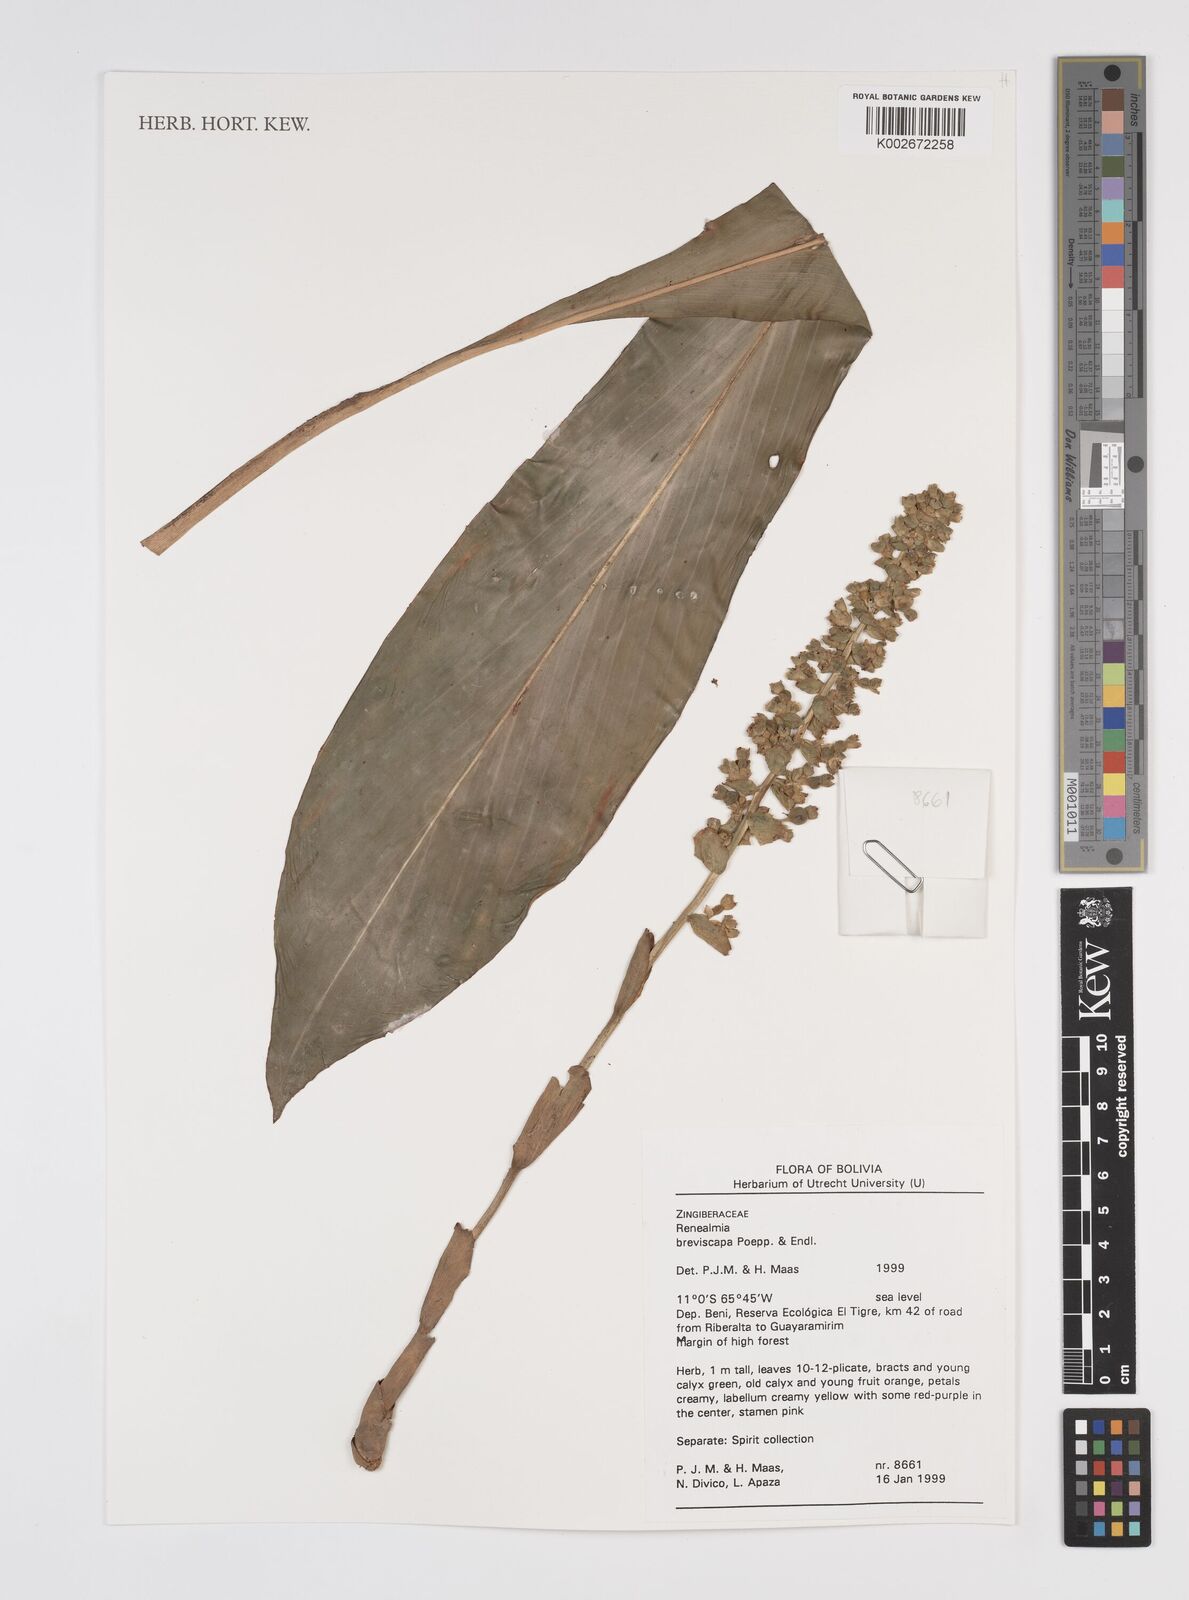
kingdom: Plantae
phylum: Tracheophyta
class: Liliopsida
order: Zingiberales
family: Zingiberaceae
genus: Renealmia
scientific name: Renealmia breviscapa
